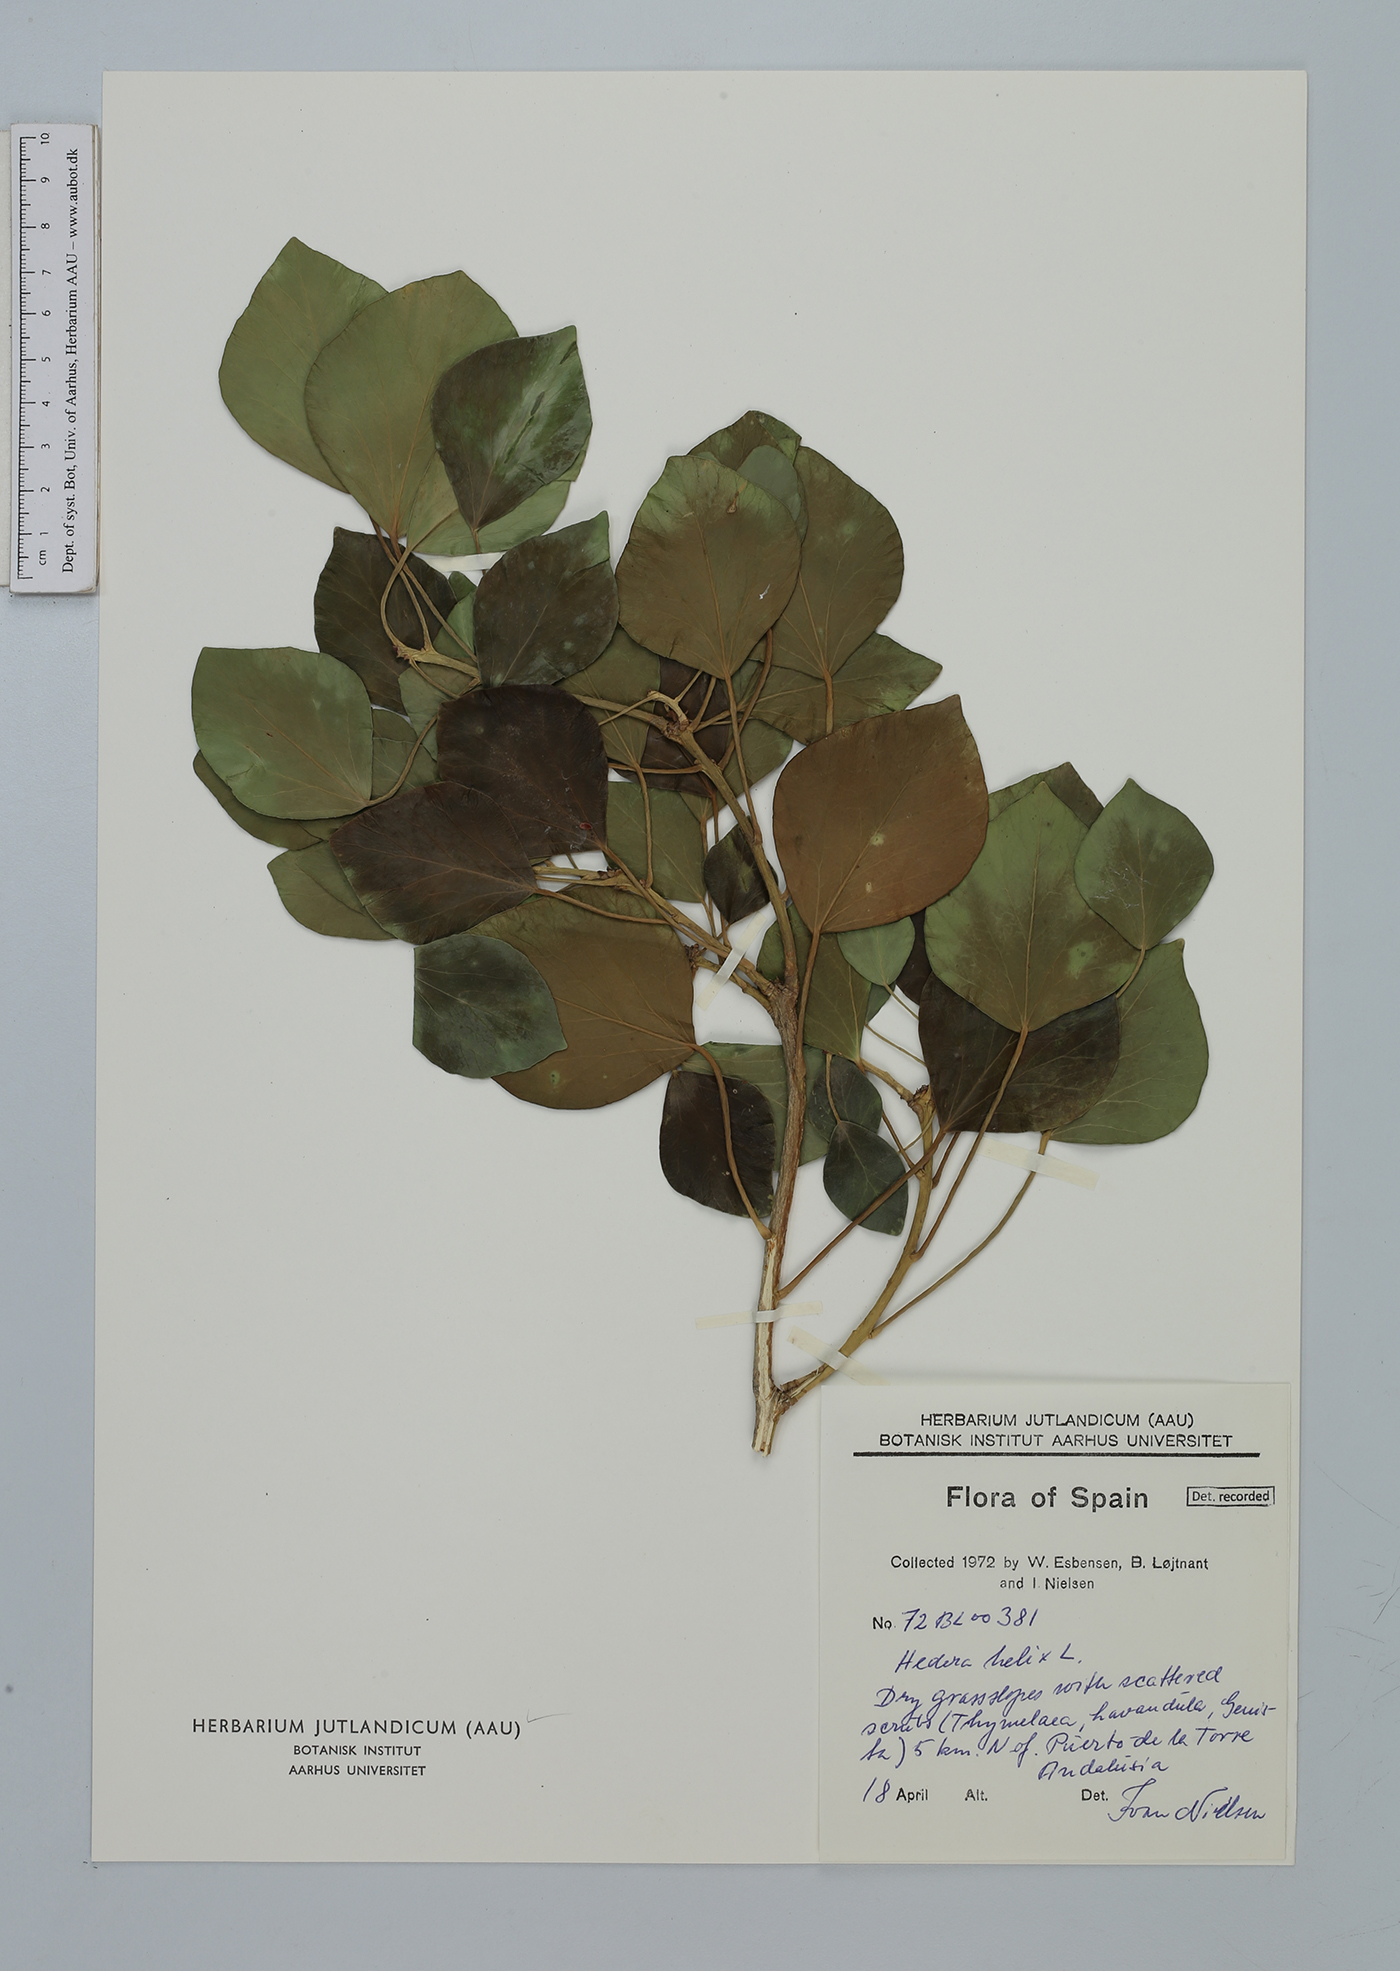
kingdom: Plantae
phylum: Tracheophyta
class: Magnoliopsida
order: Apiales
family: Araliaceae
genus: Hedera
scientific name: Hedera helix
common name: Ivy
